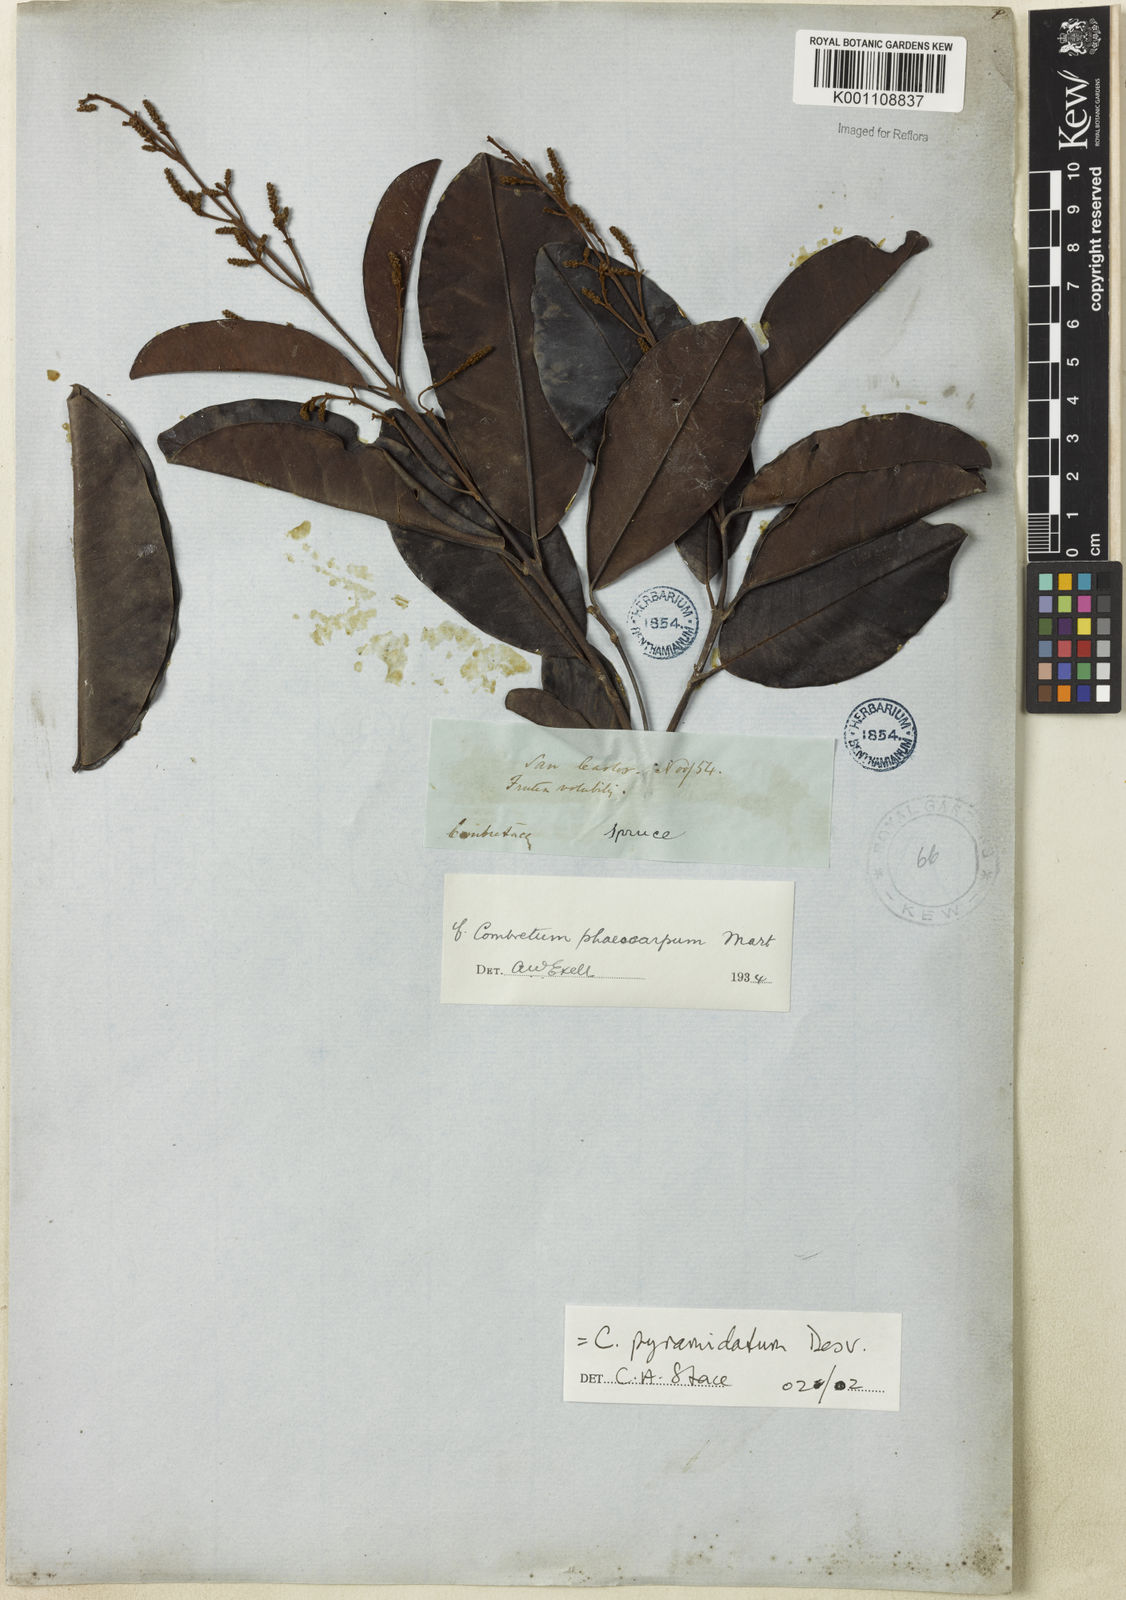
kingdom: Plantae
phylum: Tracheophyta
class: Magnoliopsida
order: Myrtales
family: Combretaceae
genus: Combretum
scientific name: Combretum pyramidatum
